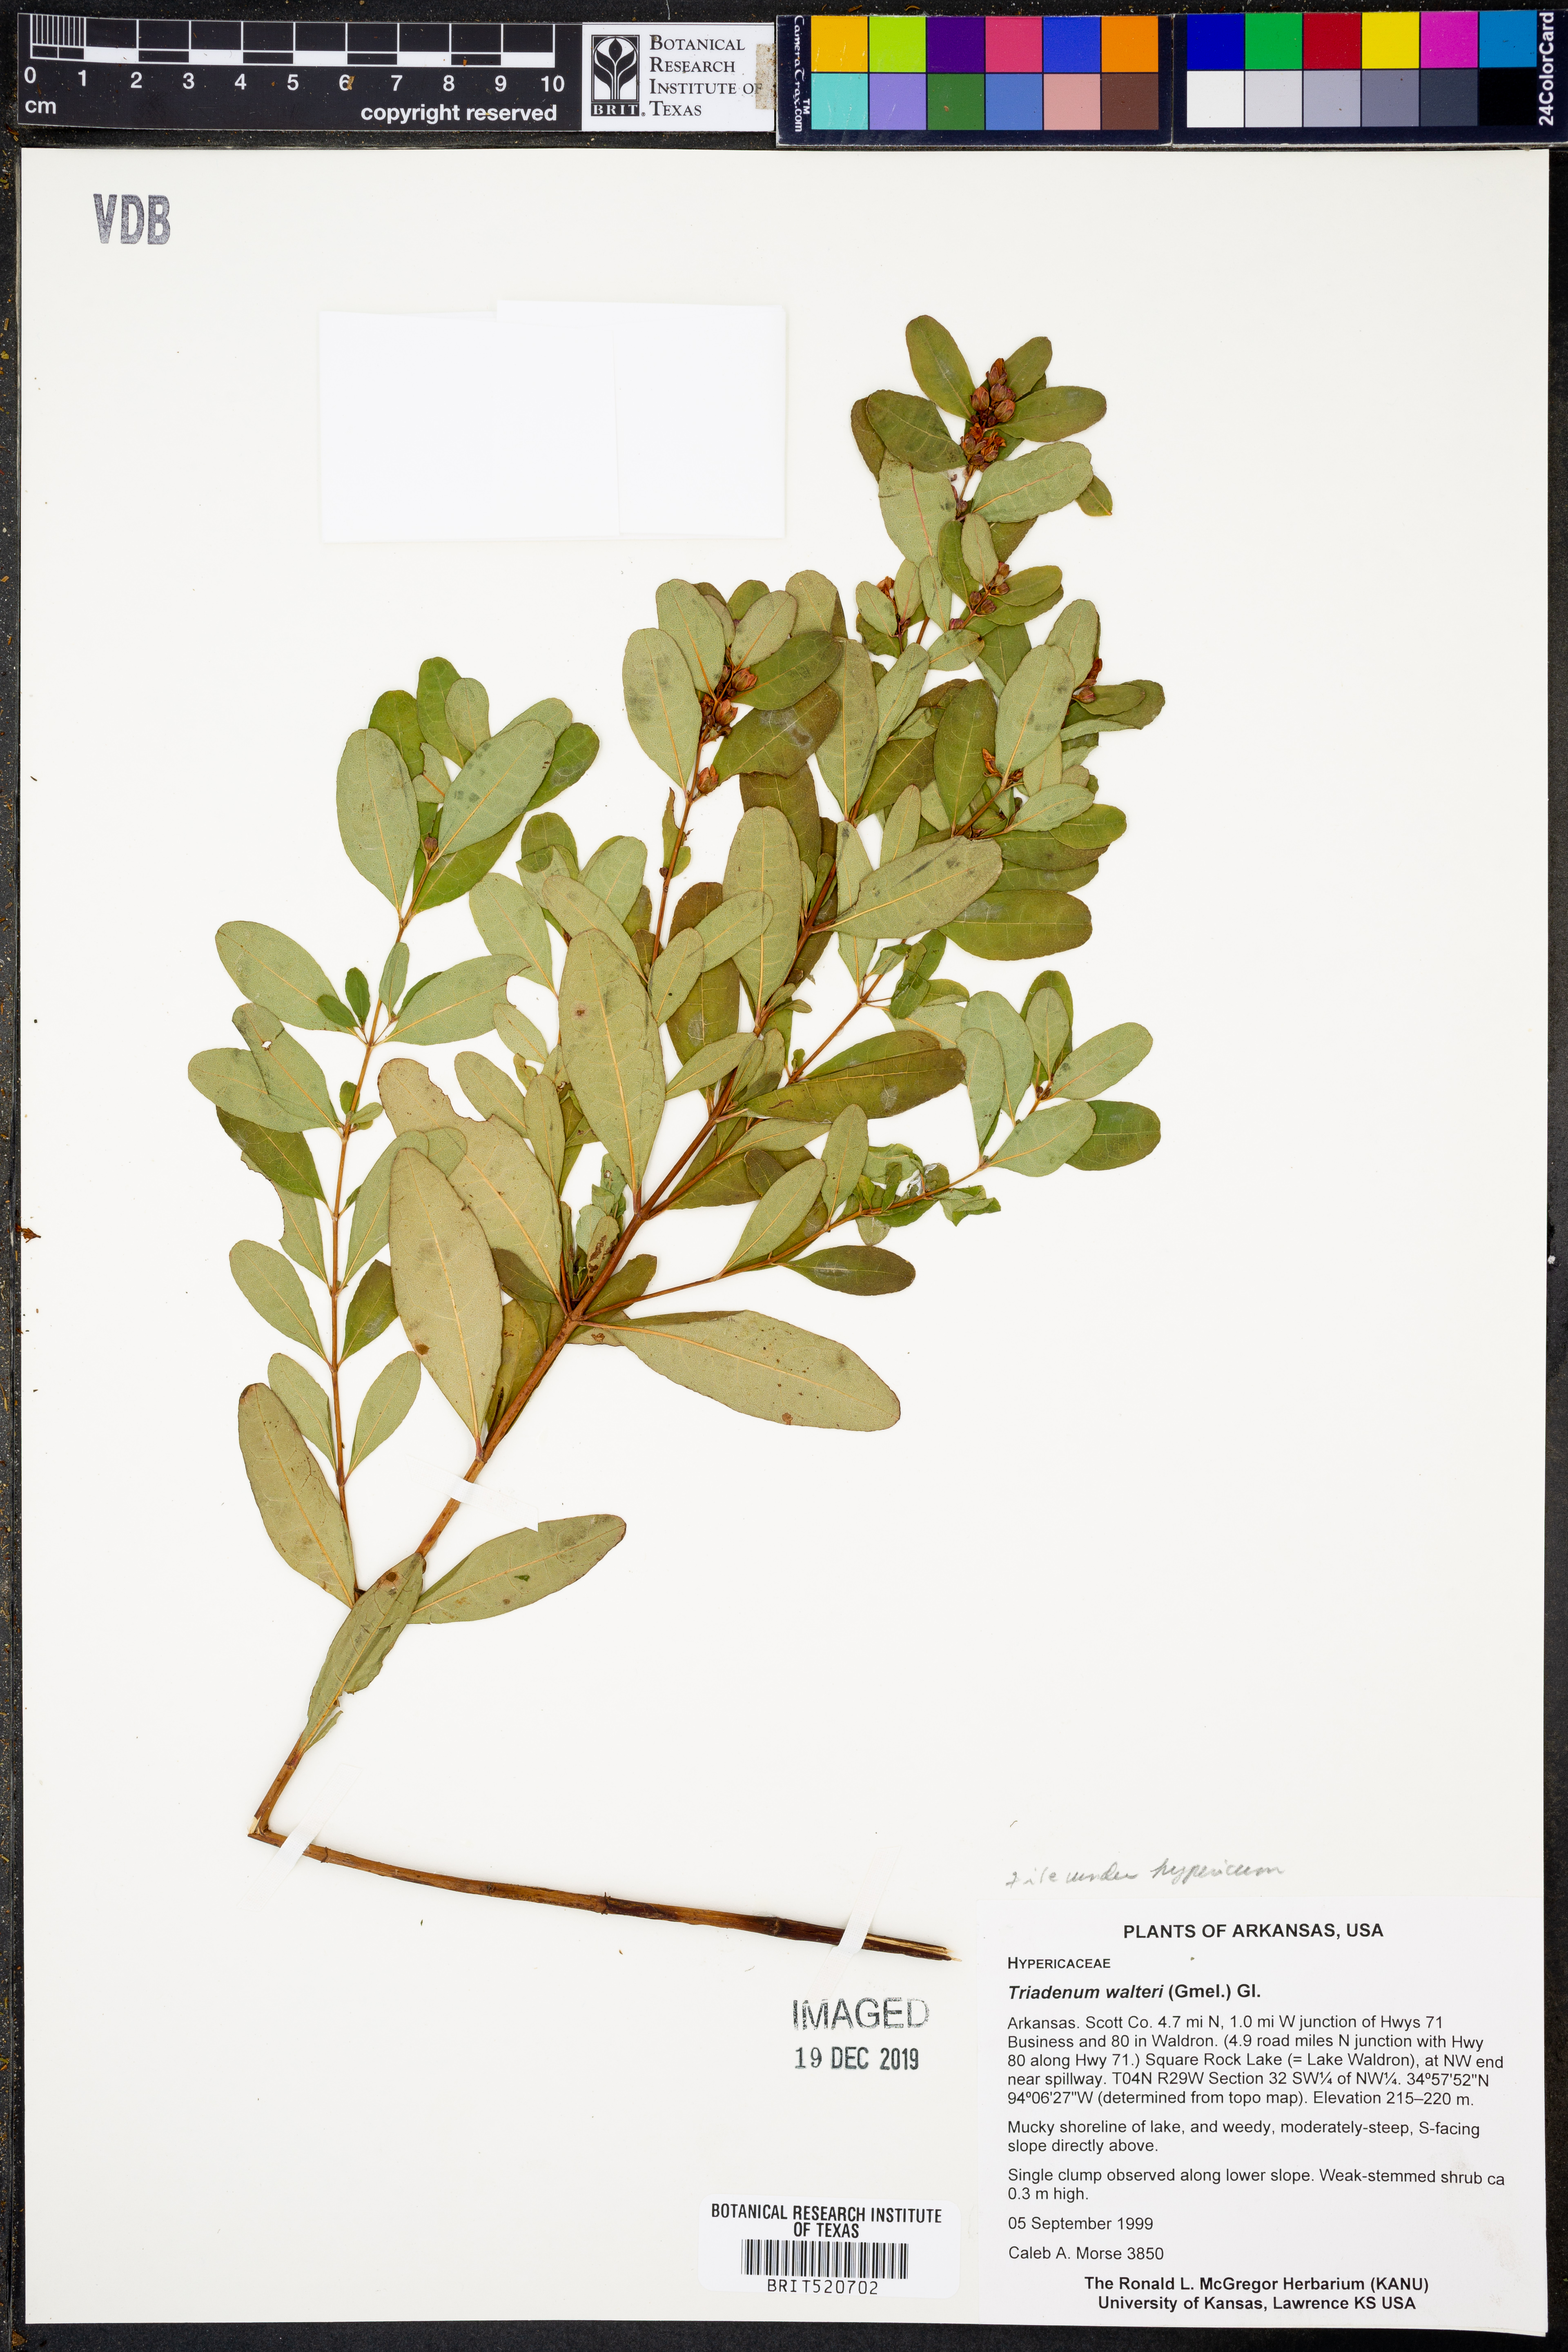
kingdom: Plantae
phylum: Tracheophyta
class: Magnoliopsida
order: Malpighiales
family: Hypericaceae
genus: Triadenum
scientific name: Triadenum walteri
